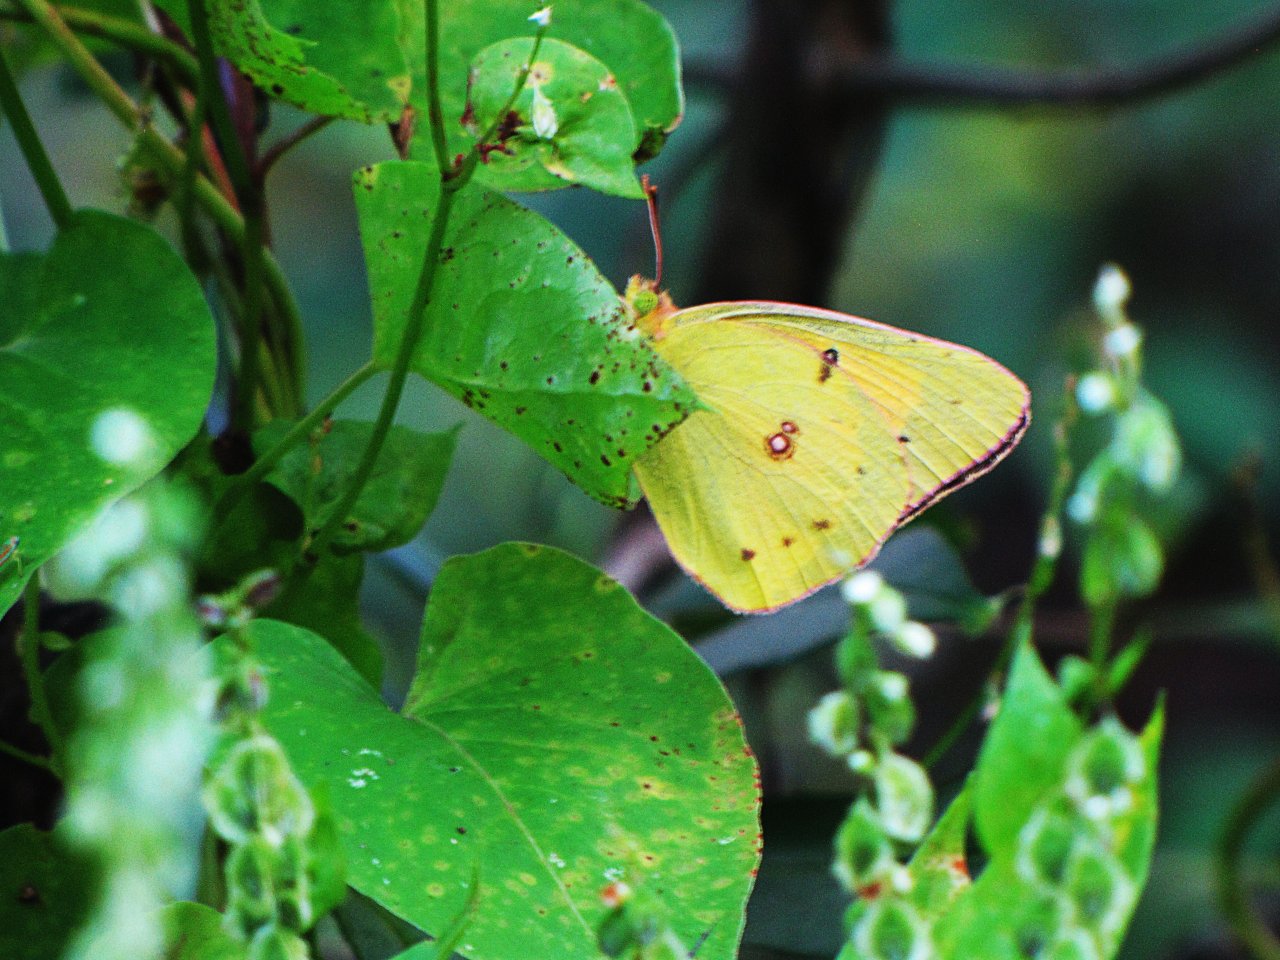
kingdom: Animalia
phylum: Arthropoda
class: Insecta
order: Lepidoptera
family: Pieridae
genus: Colias
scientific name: Colias eurytheme
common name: Orange Sulphur
